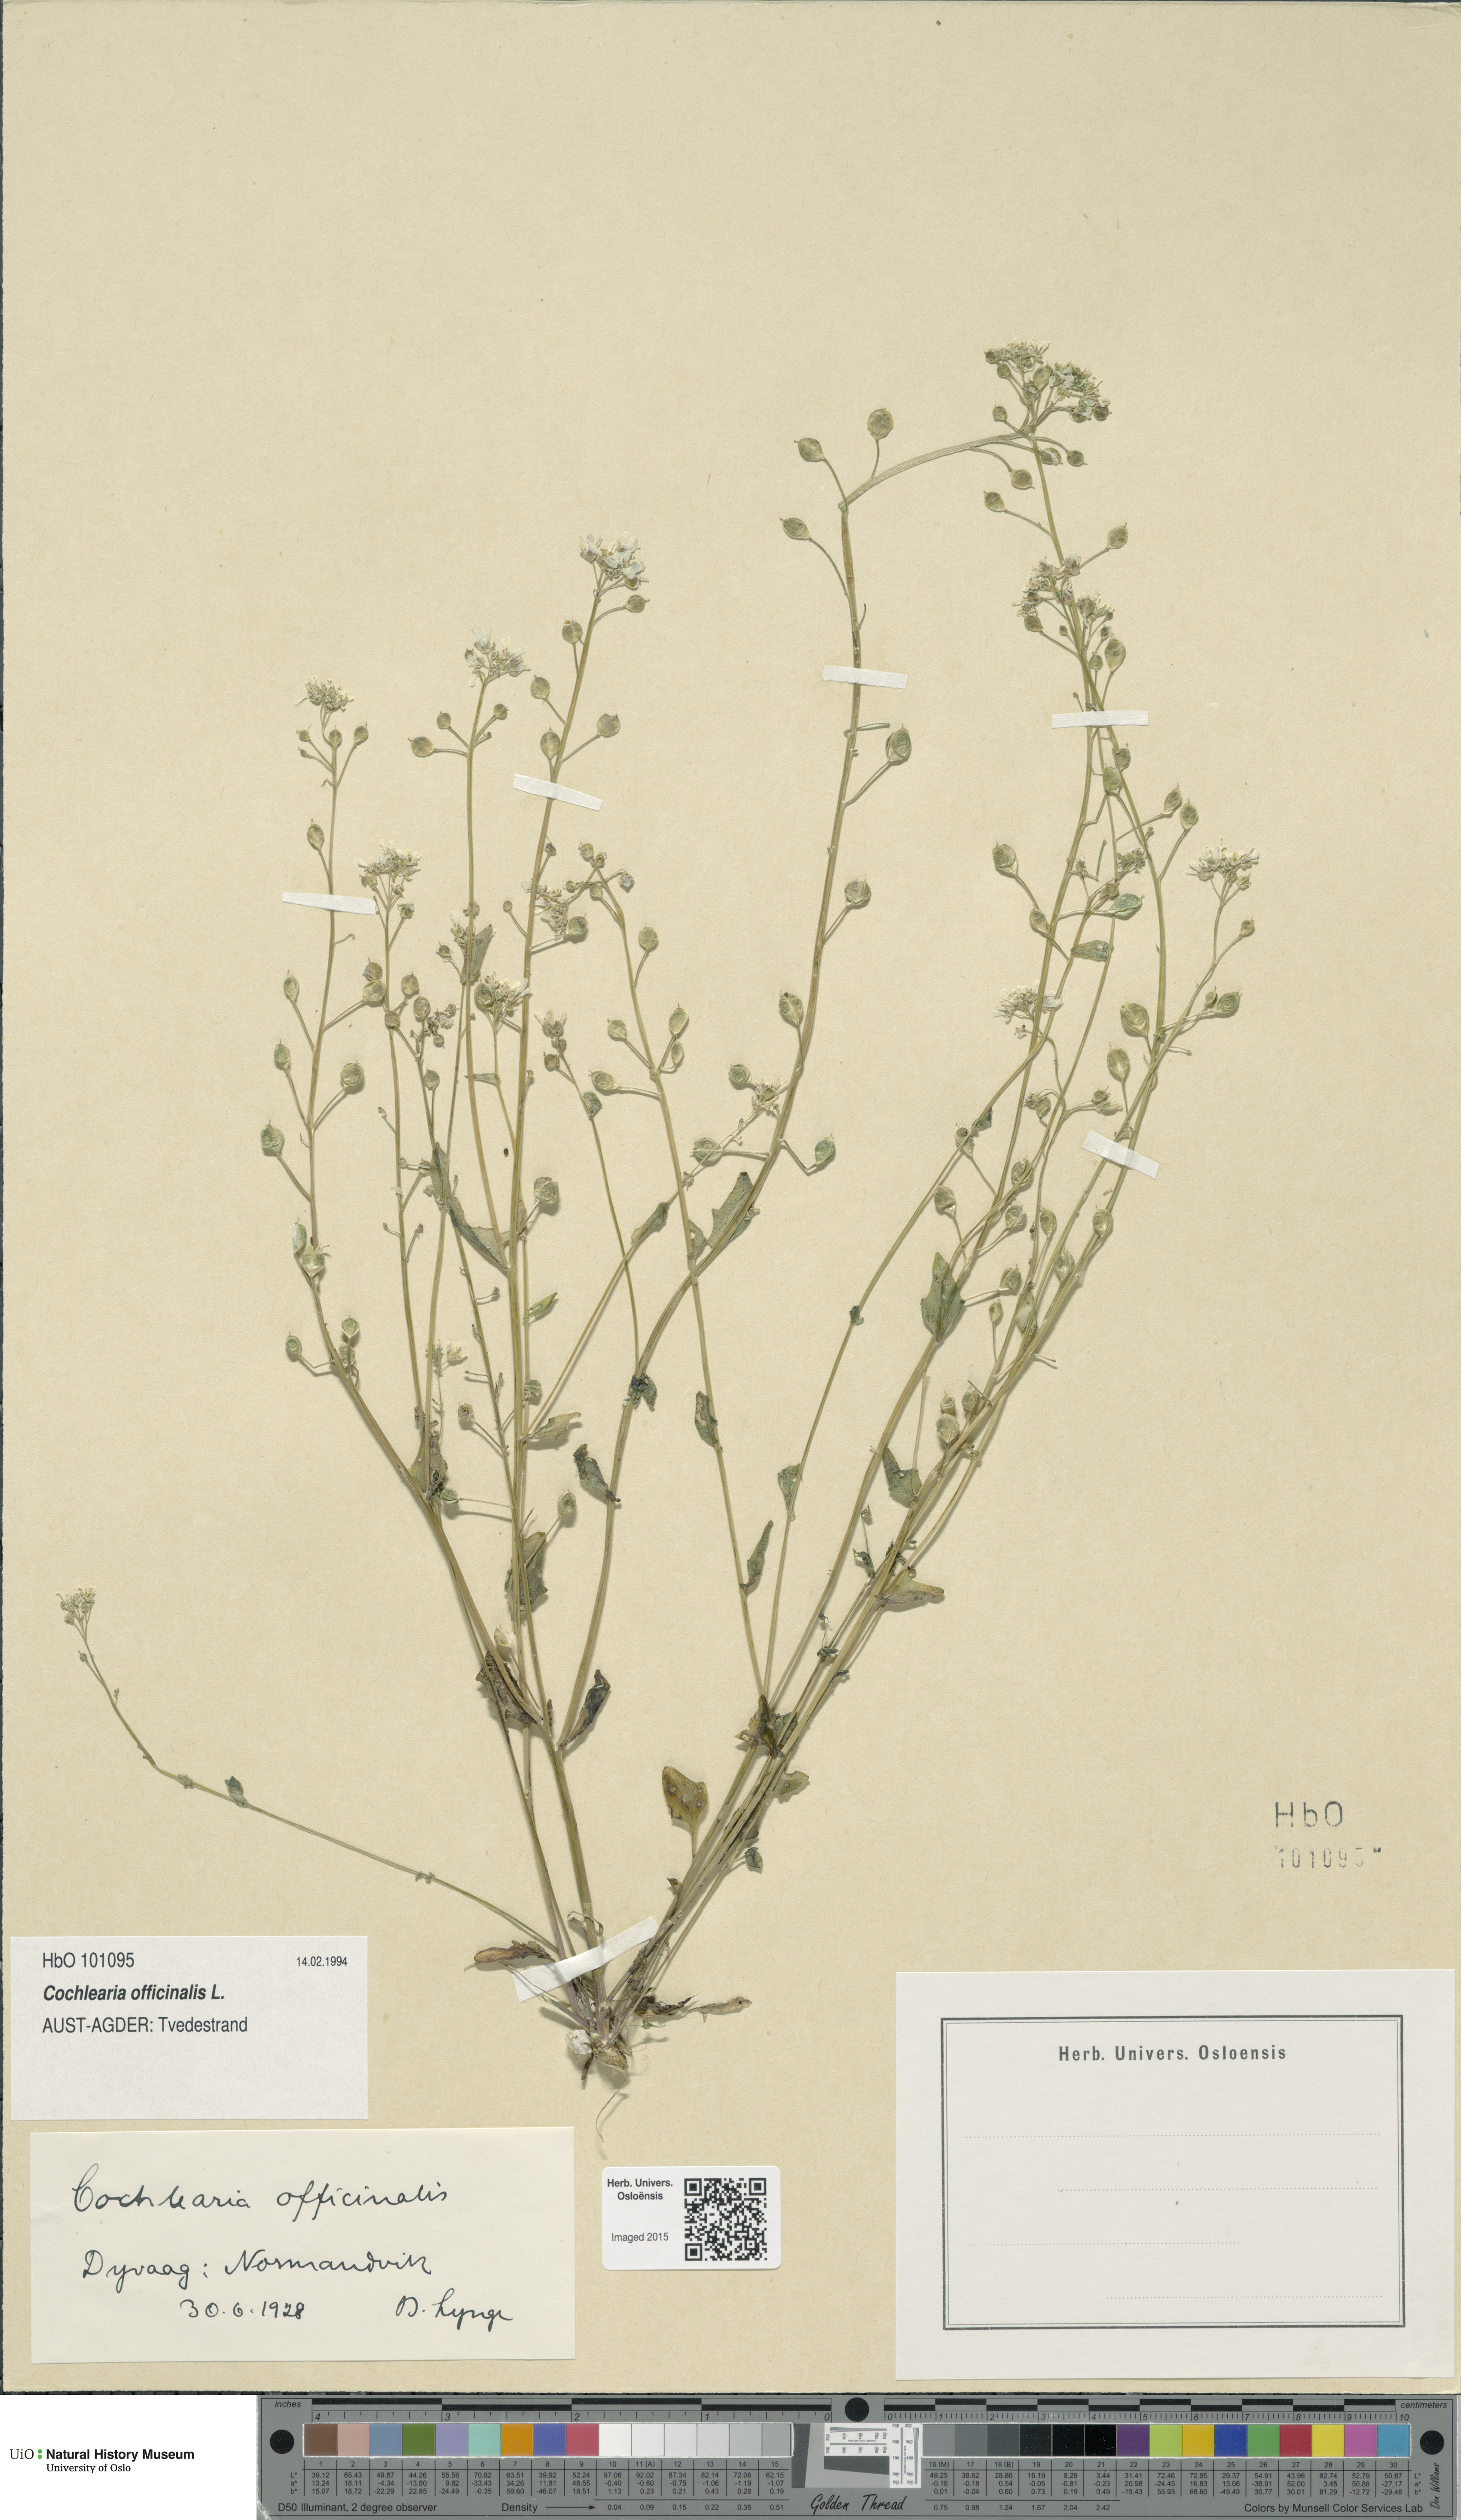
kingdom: Plantae
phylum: Tracheophyta
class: Magnoliopsida
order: Brassicales
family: Brassicaceae
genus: Cochlearia
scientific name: Cochlearia officinalis
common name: Scurvy-grass
